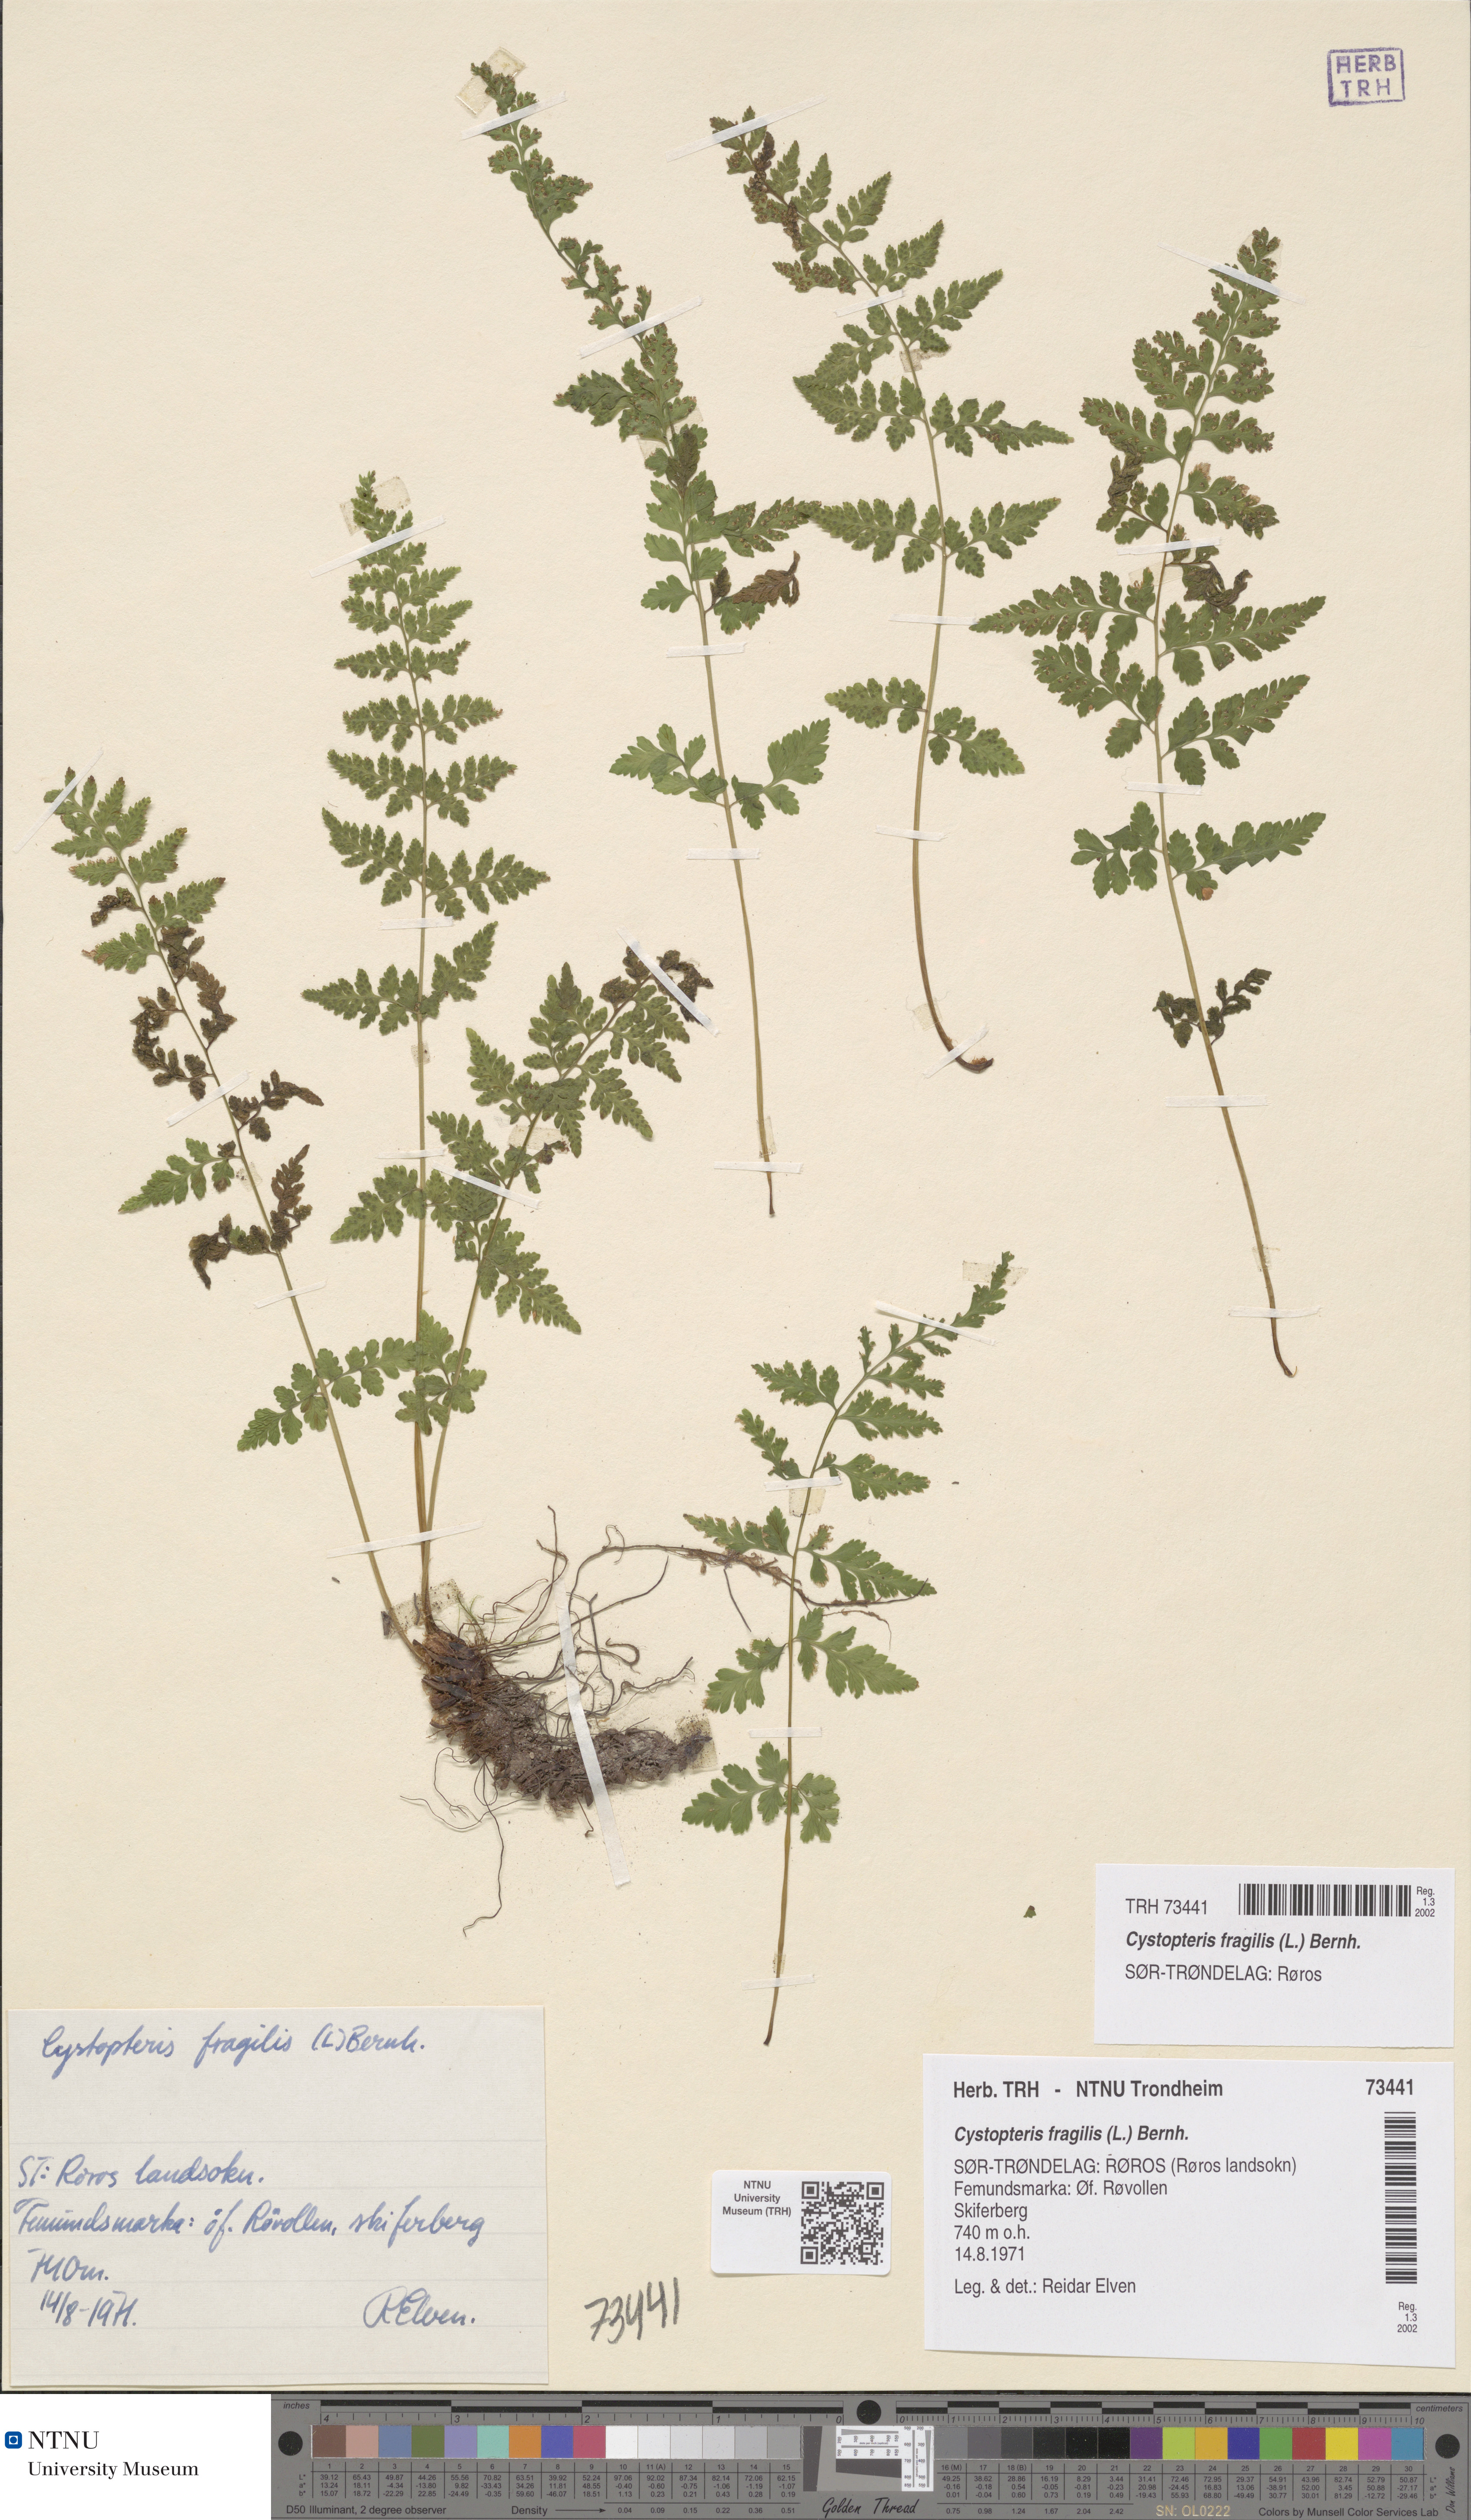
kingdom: Plantae
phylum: Tracheophyta
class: Polypodiopsida
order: Polypodiales
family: Cystopteridaceae
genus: Cystopteris
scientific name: Cystopteris fragilis
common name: Brittle bladder fern
